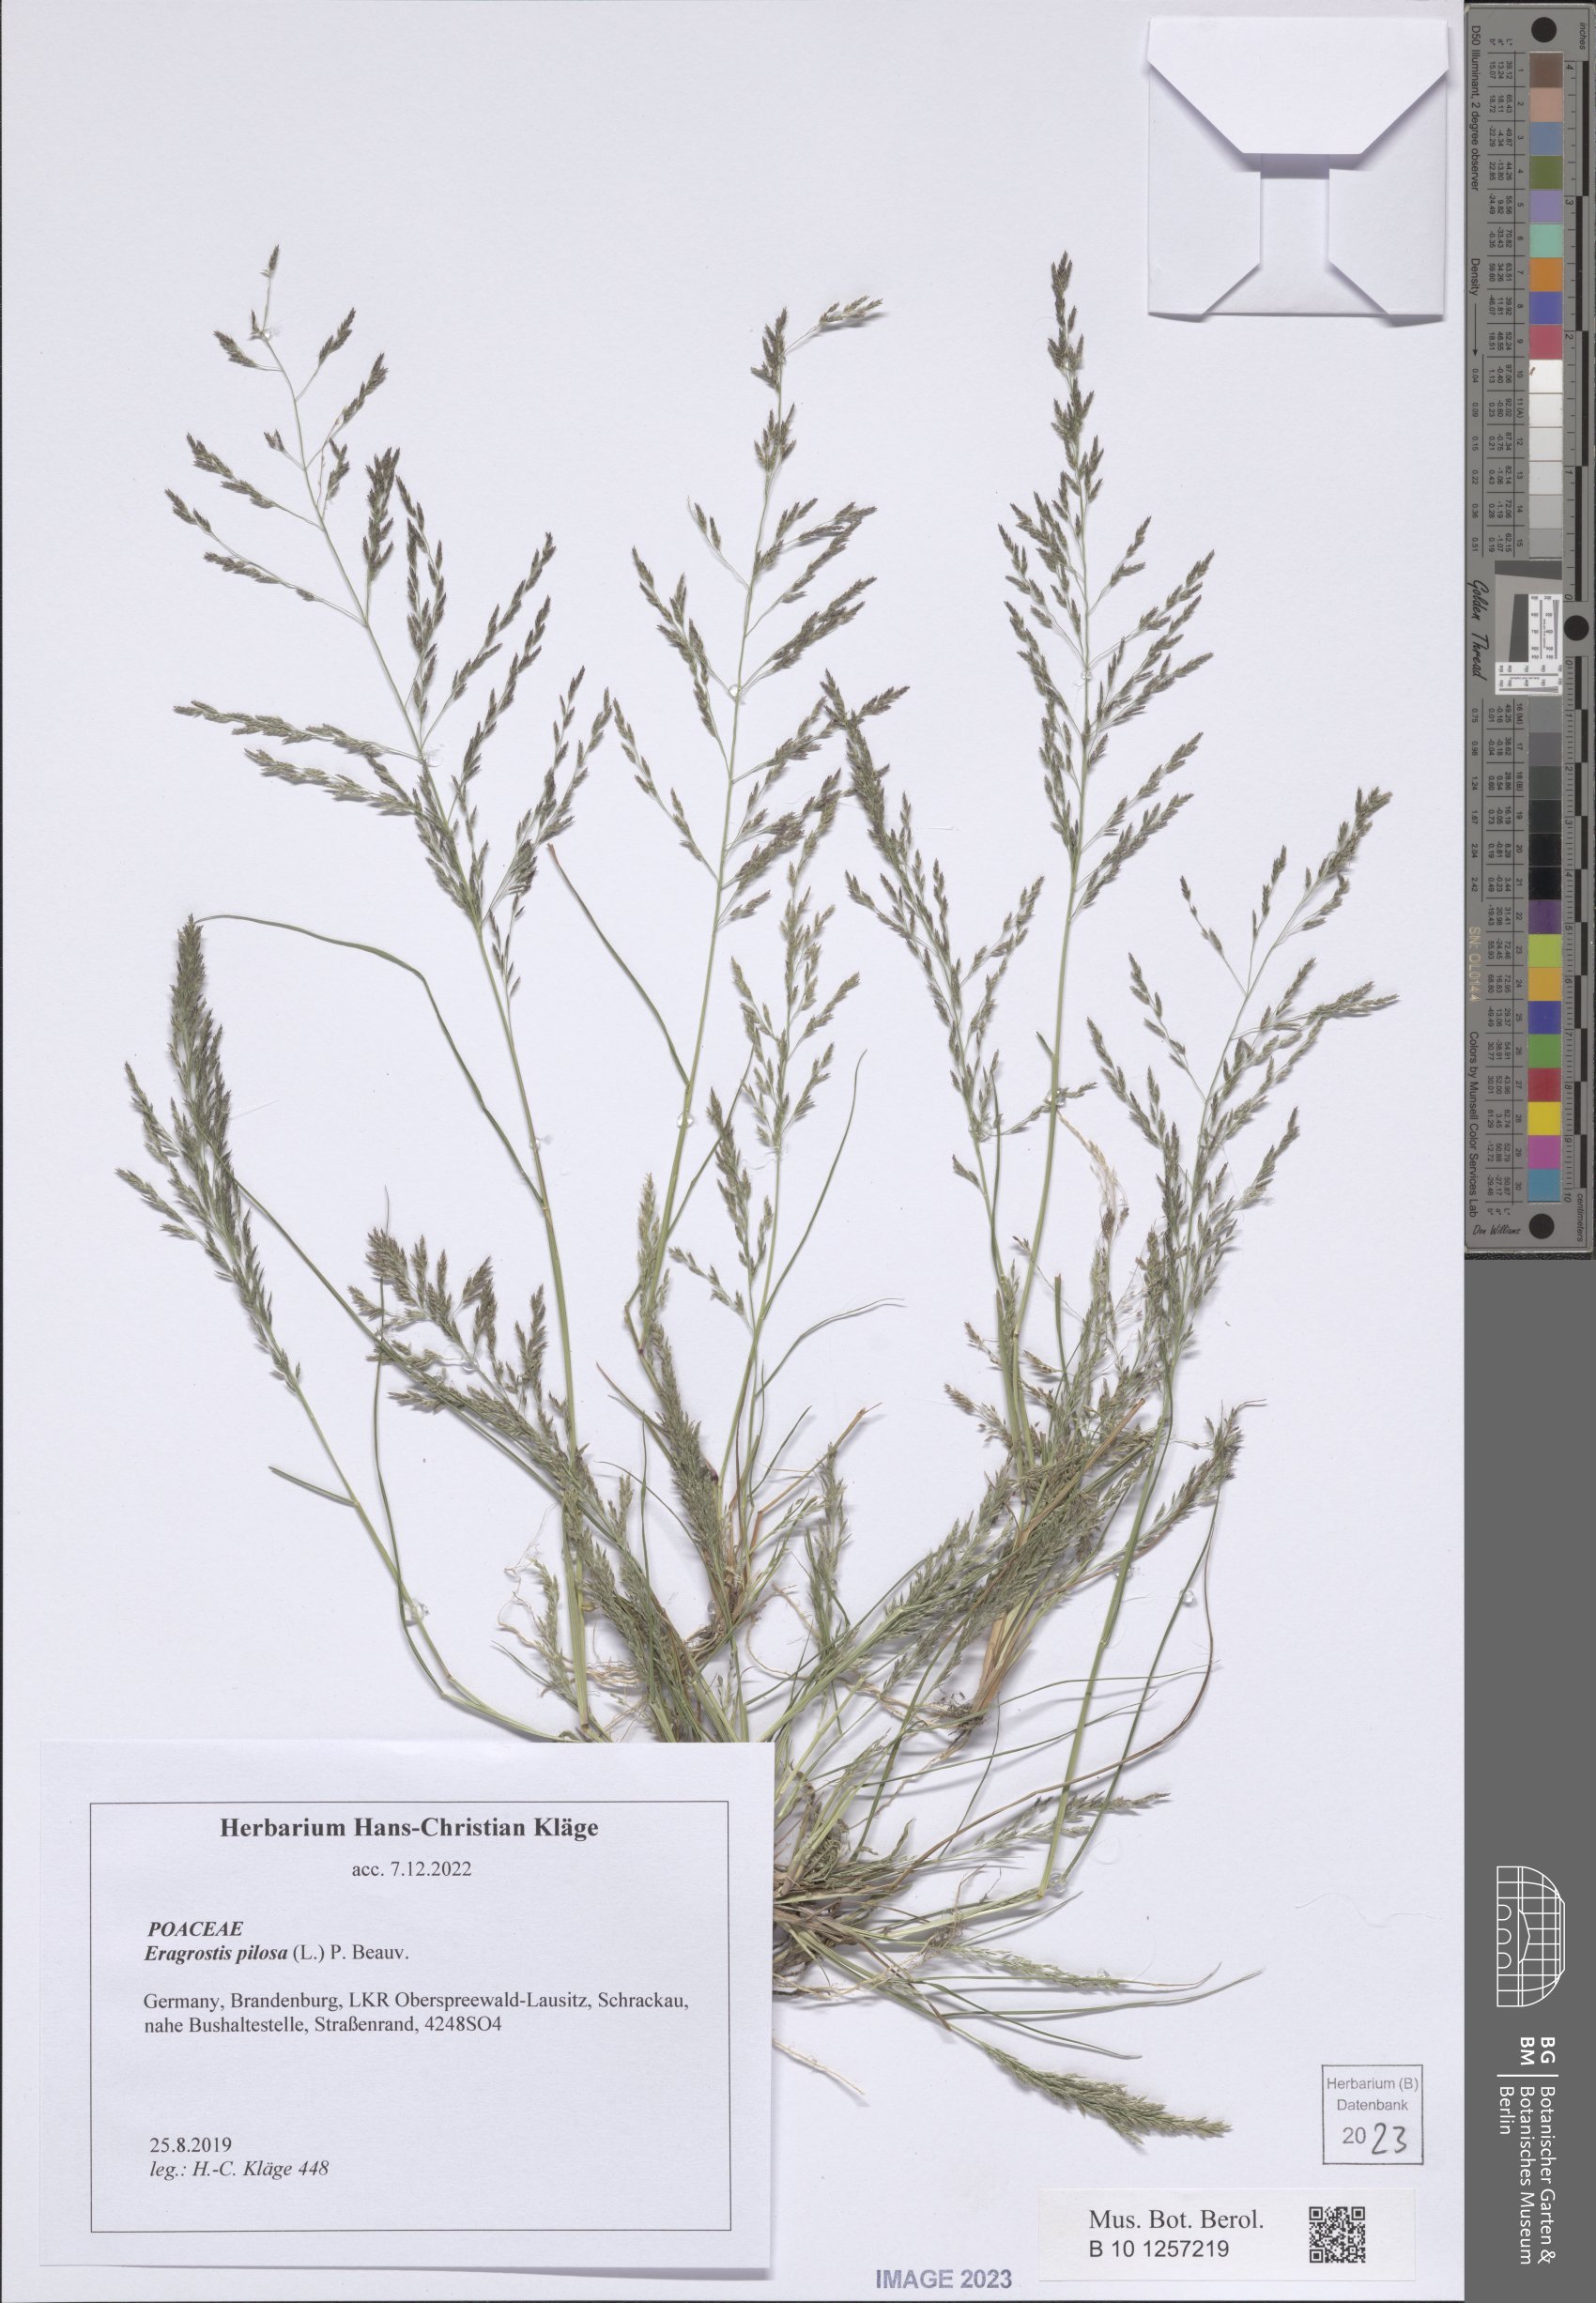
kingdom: Plantae
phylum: Tracheophyta
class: Liliopsida
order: Poales
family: Poaceae
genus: Eragrostis
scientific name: Eragrostis pilosa
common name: Indian lovegrass
